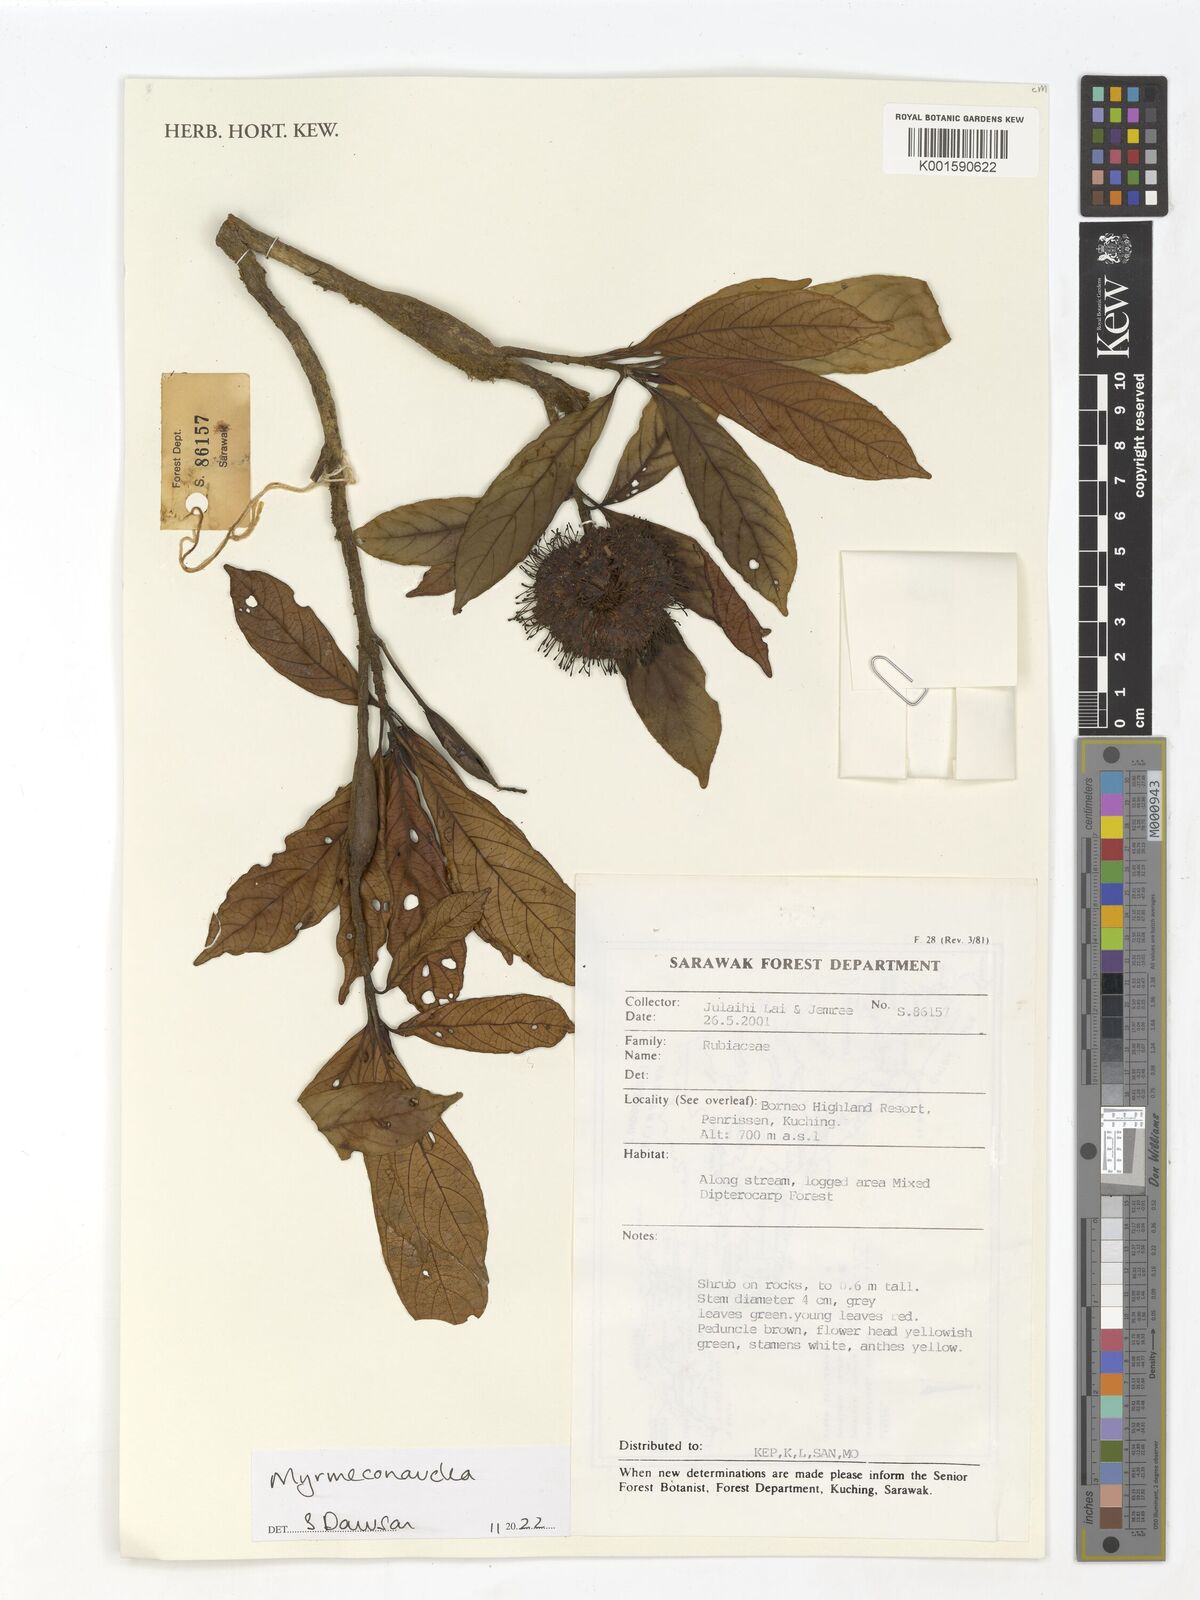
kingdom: Plantae
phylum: Tracheophyta
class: Magnoliopsida
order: Gentianales
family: Rubiaceae
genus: Myrmeconauclea
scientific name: Myrmeconauclea
